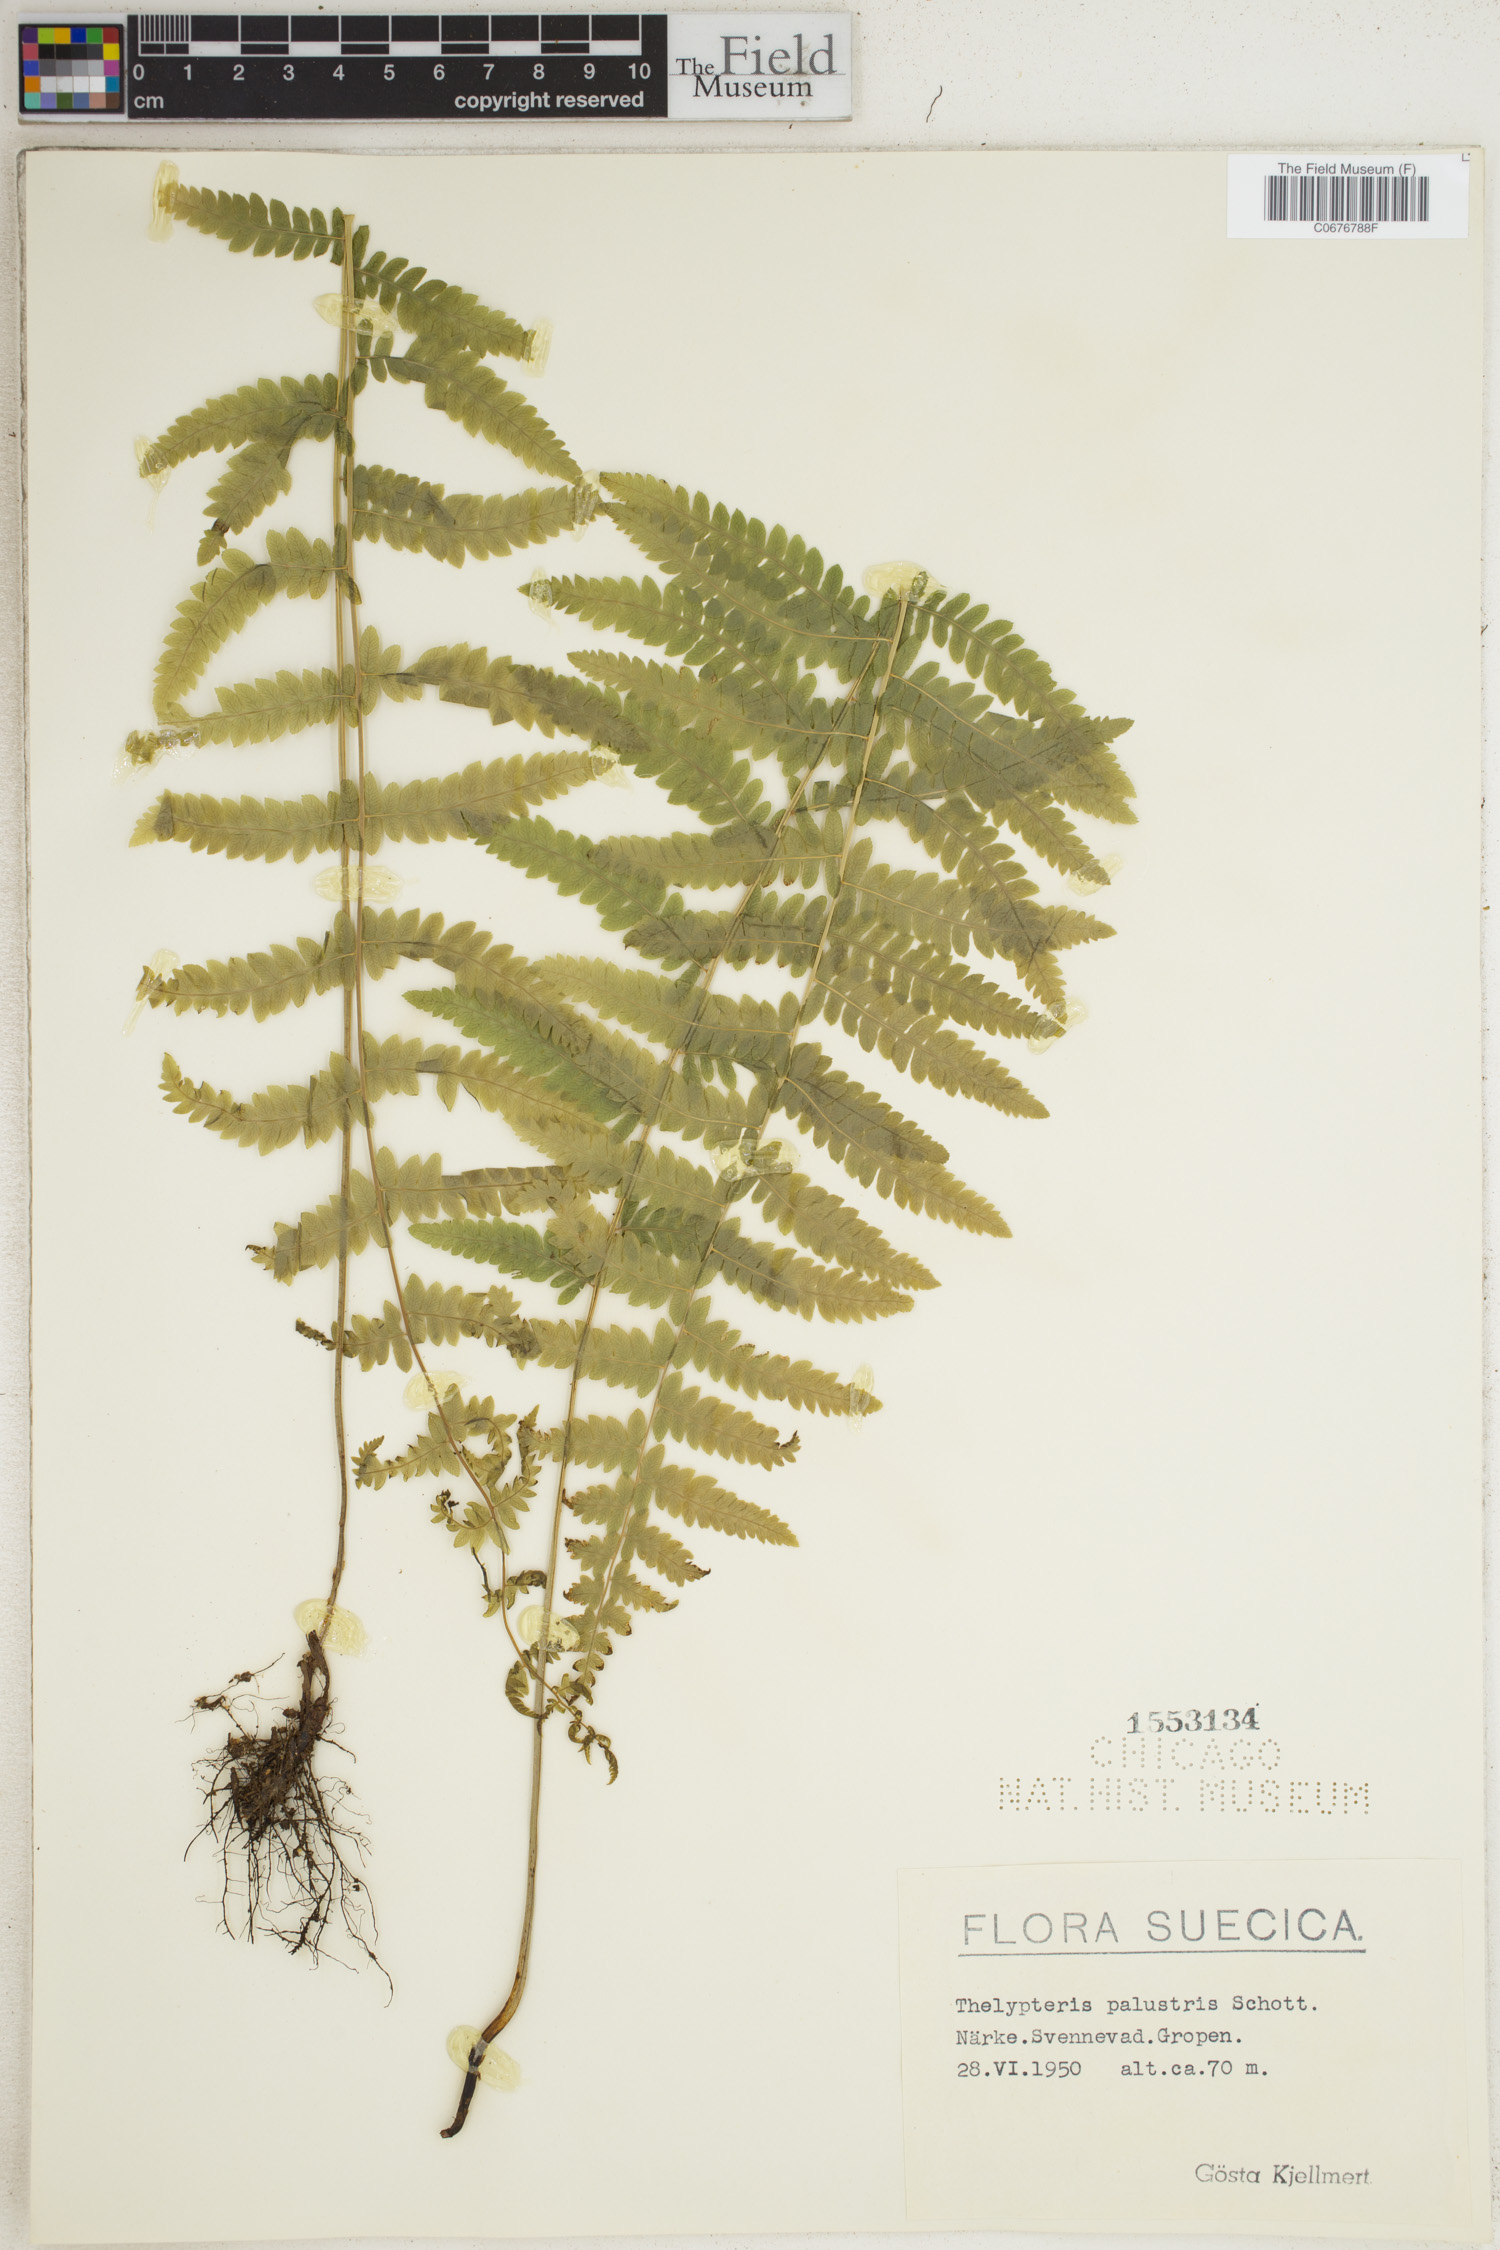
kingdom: Plantae
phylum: Tracheophyta
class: Polypodiopsida
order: Polypodiales
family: Thelypteridaceae
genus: Thelypteris
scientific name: Thelypteris palustris
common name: Marsh fern
